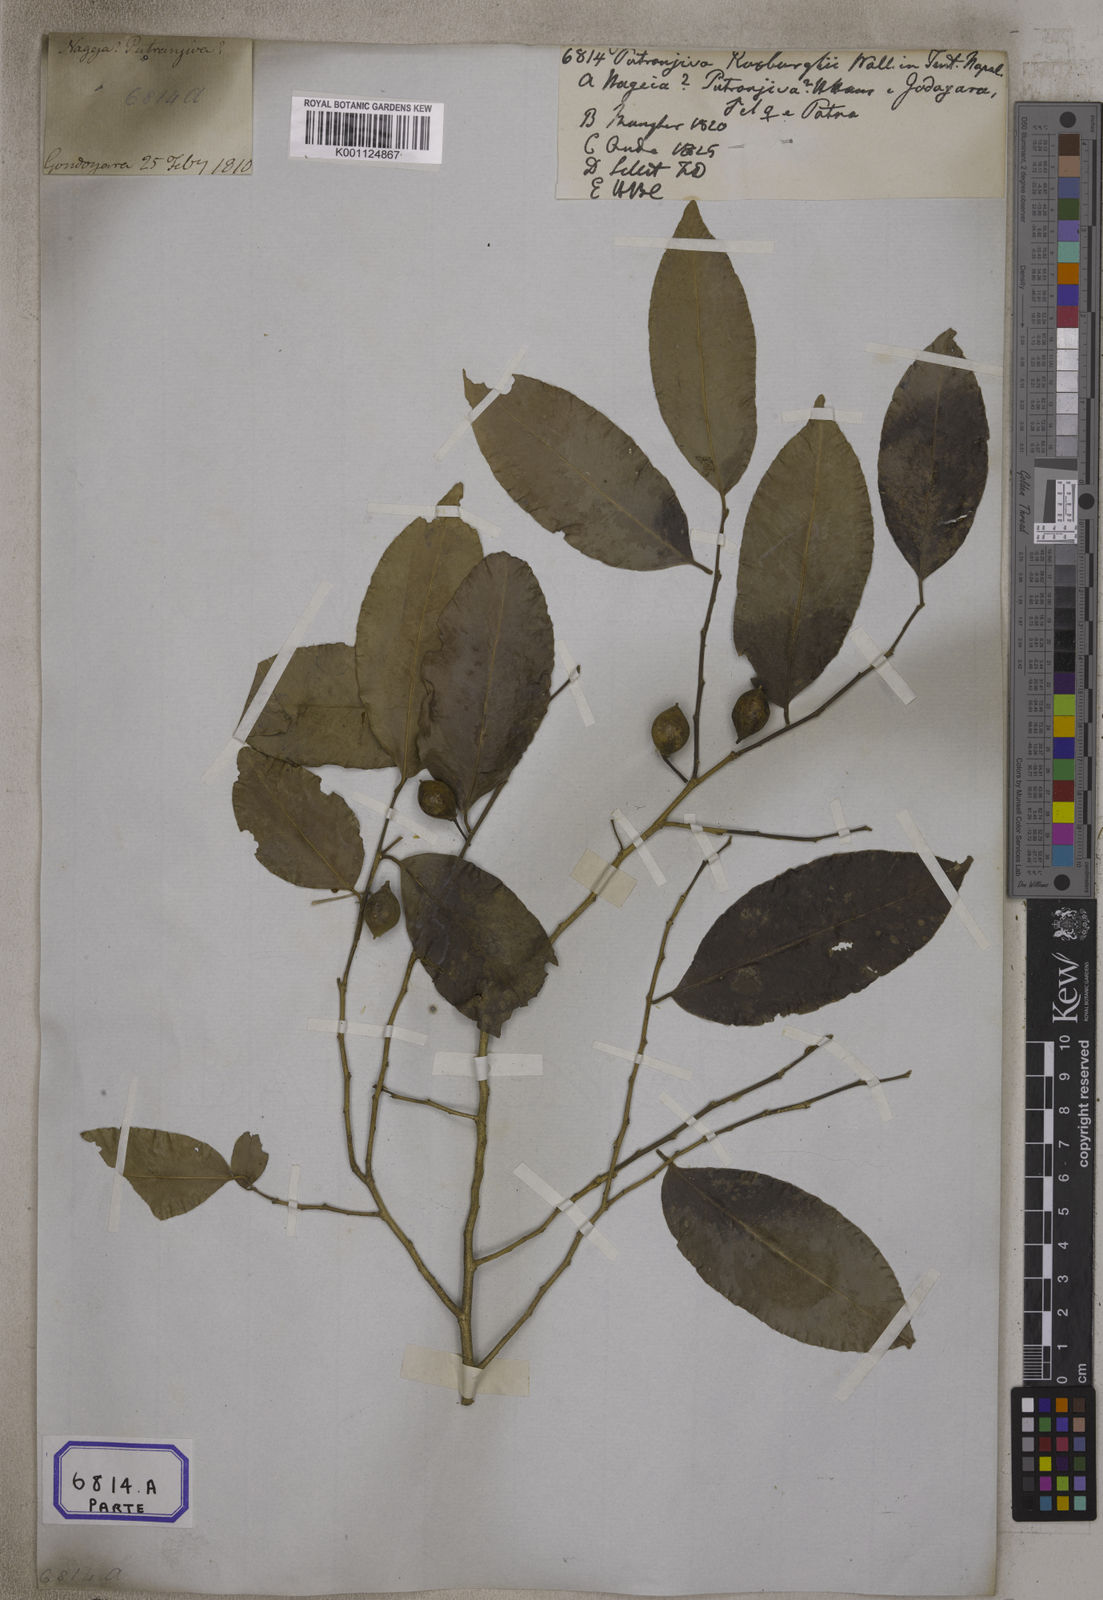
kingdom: Plantae
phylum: Tracheophyta
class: Magnoliopsida
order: Malpighiales
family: Putranjivaceae
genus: Putranjiva
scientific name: Putranjiva roxburghii
